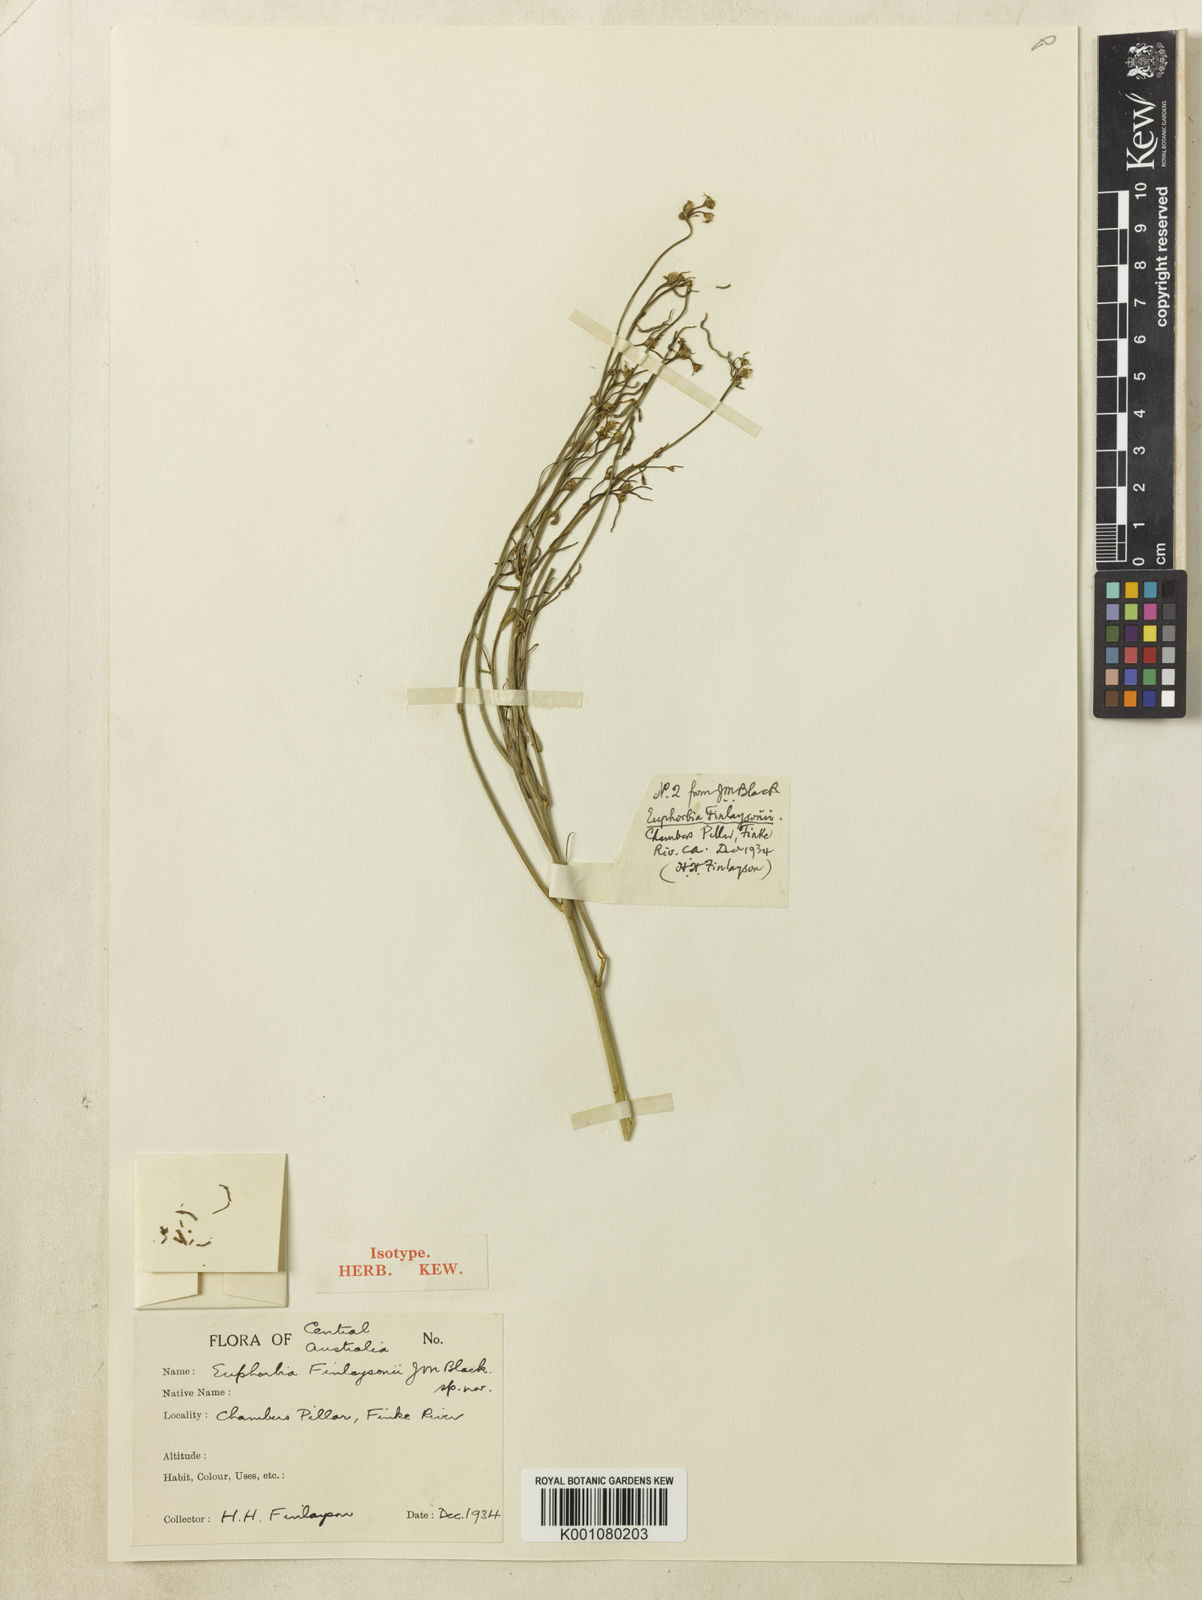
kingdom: Plantae
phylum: Tracheophyta
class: Magnoliopsida
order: Malpighiales
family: Euphorbiaceae
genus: Euphorbia
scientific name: Euphorbia tannensis
